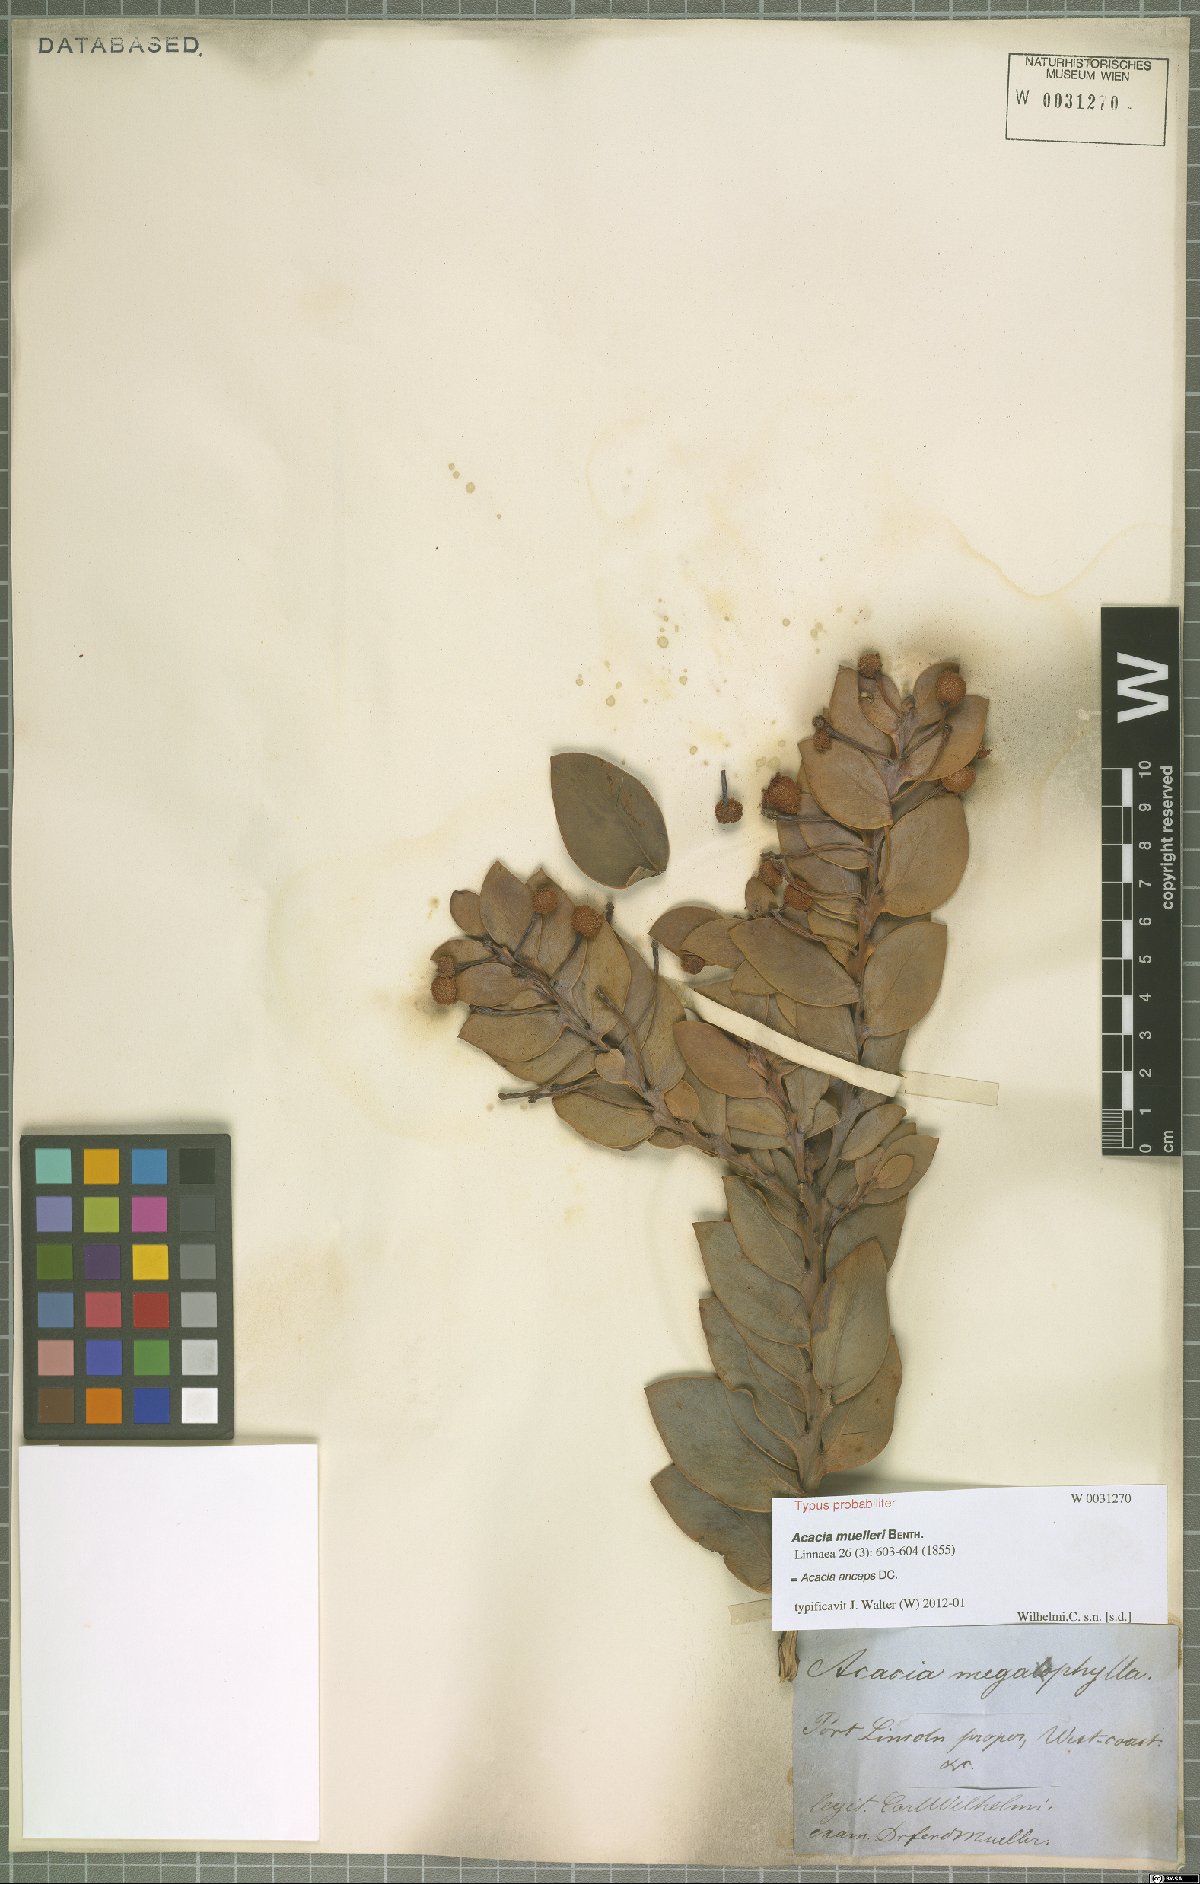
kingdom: Plantae
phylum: Tracheophyta
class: Magnoliopsida
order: Fabales
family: Fabaceae
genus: Acacia
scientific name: Acacia anceps
